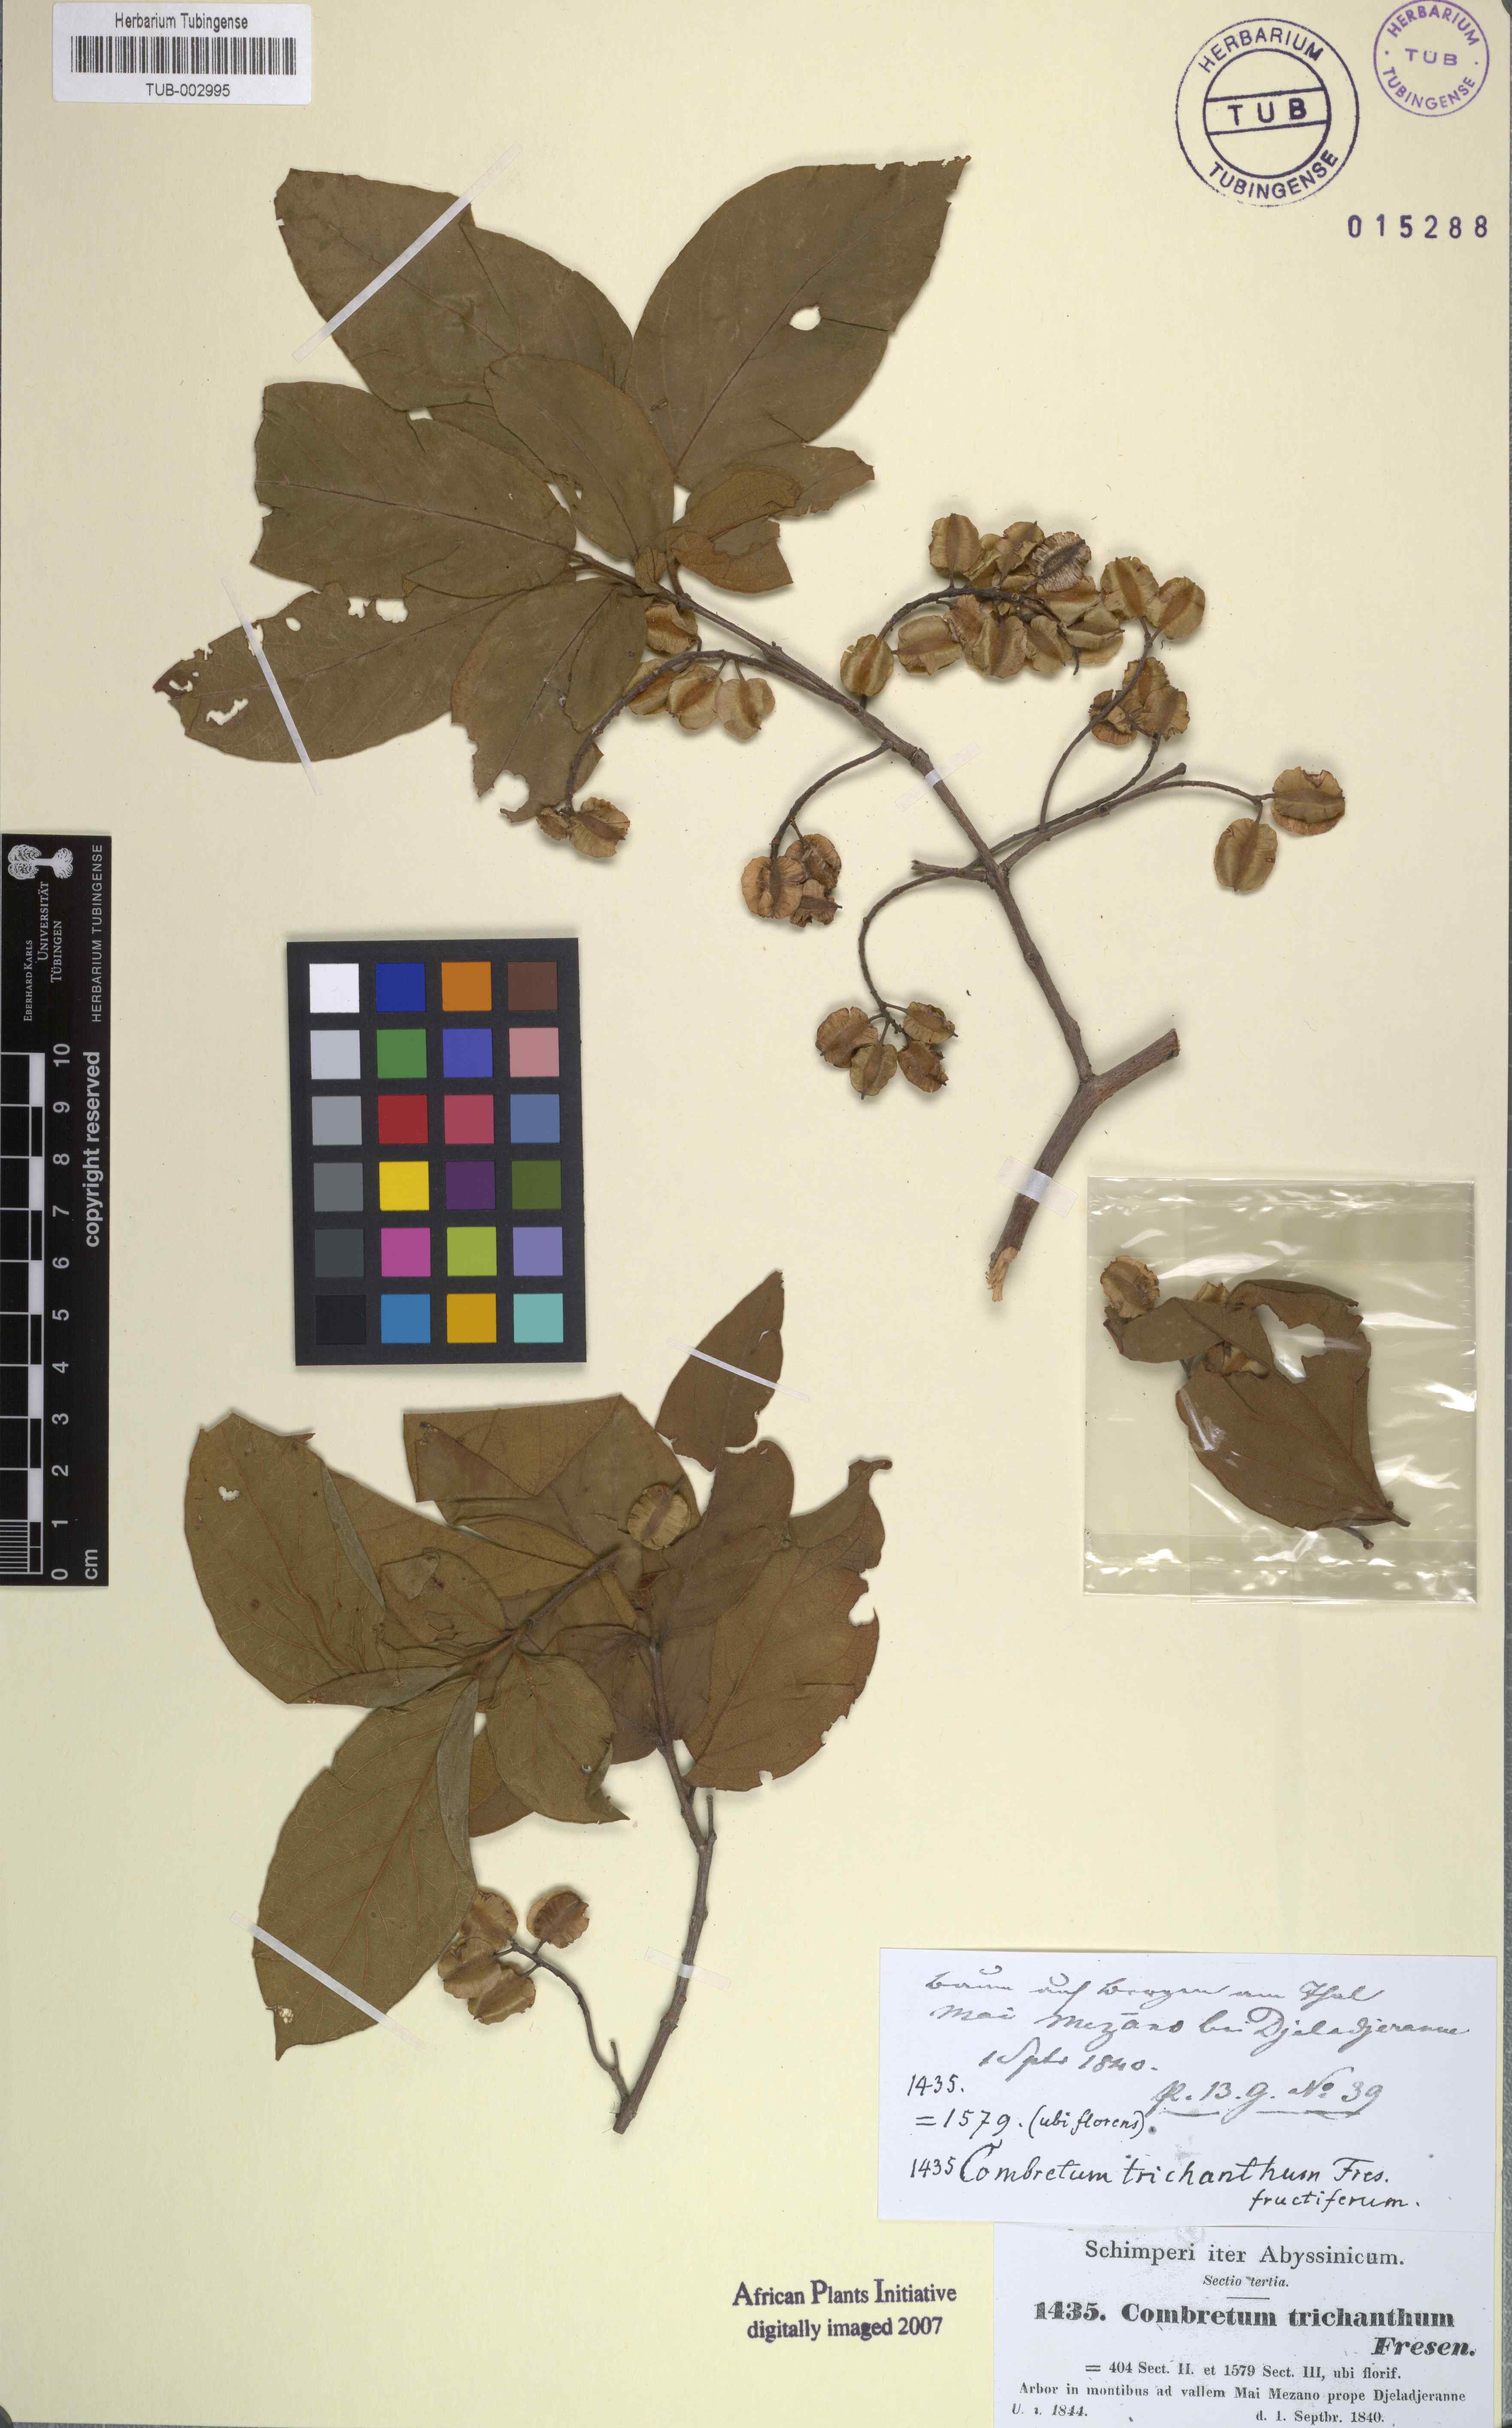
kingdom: Plantae
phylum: Tracheophyta
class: Magnoliopsida
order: Myrtales
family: Combretaceae
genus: Combretum
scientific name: Combretum molle
